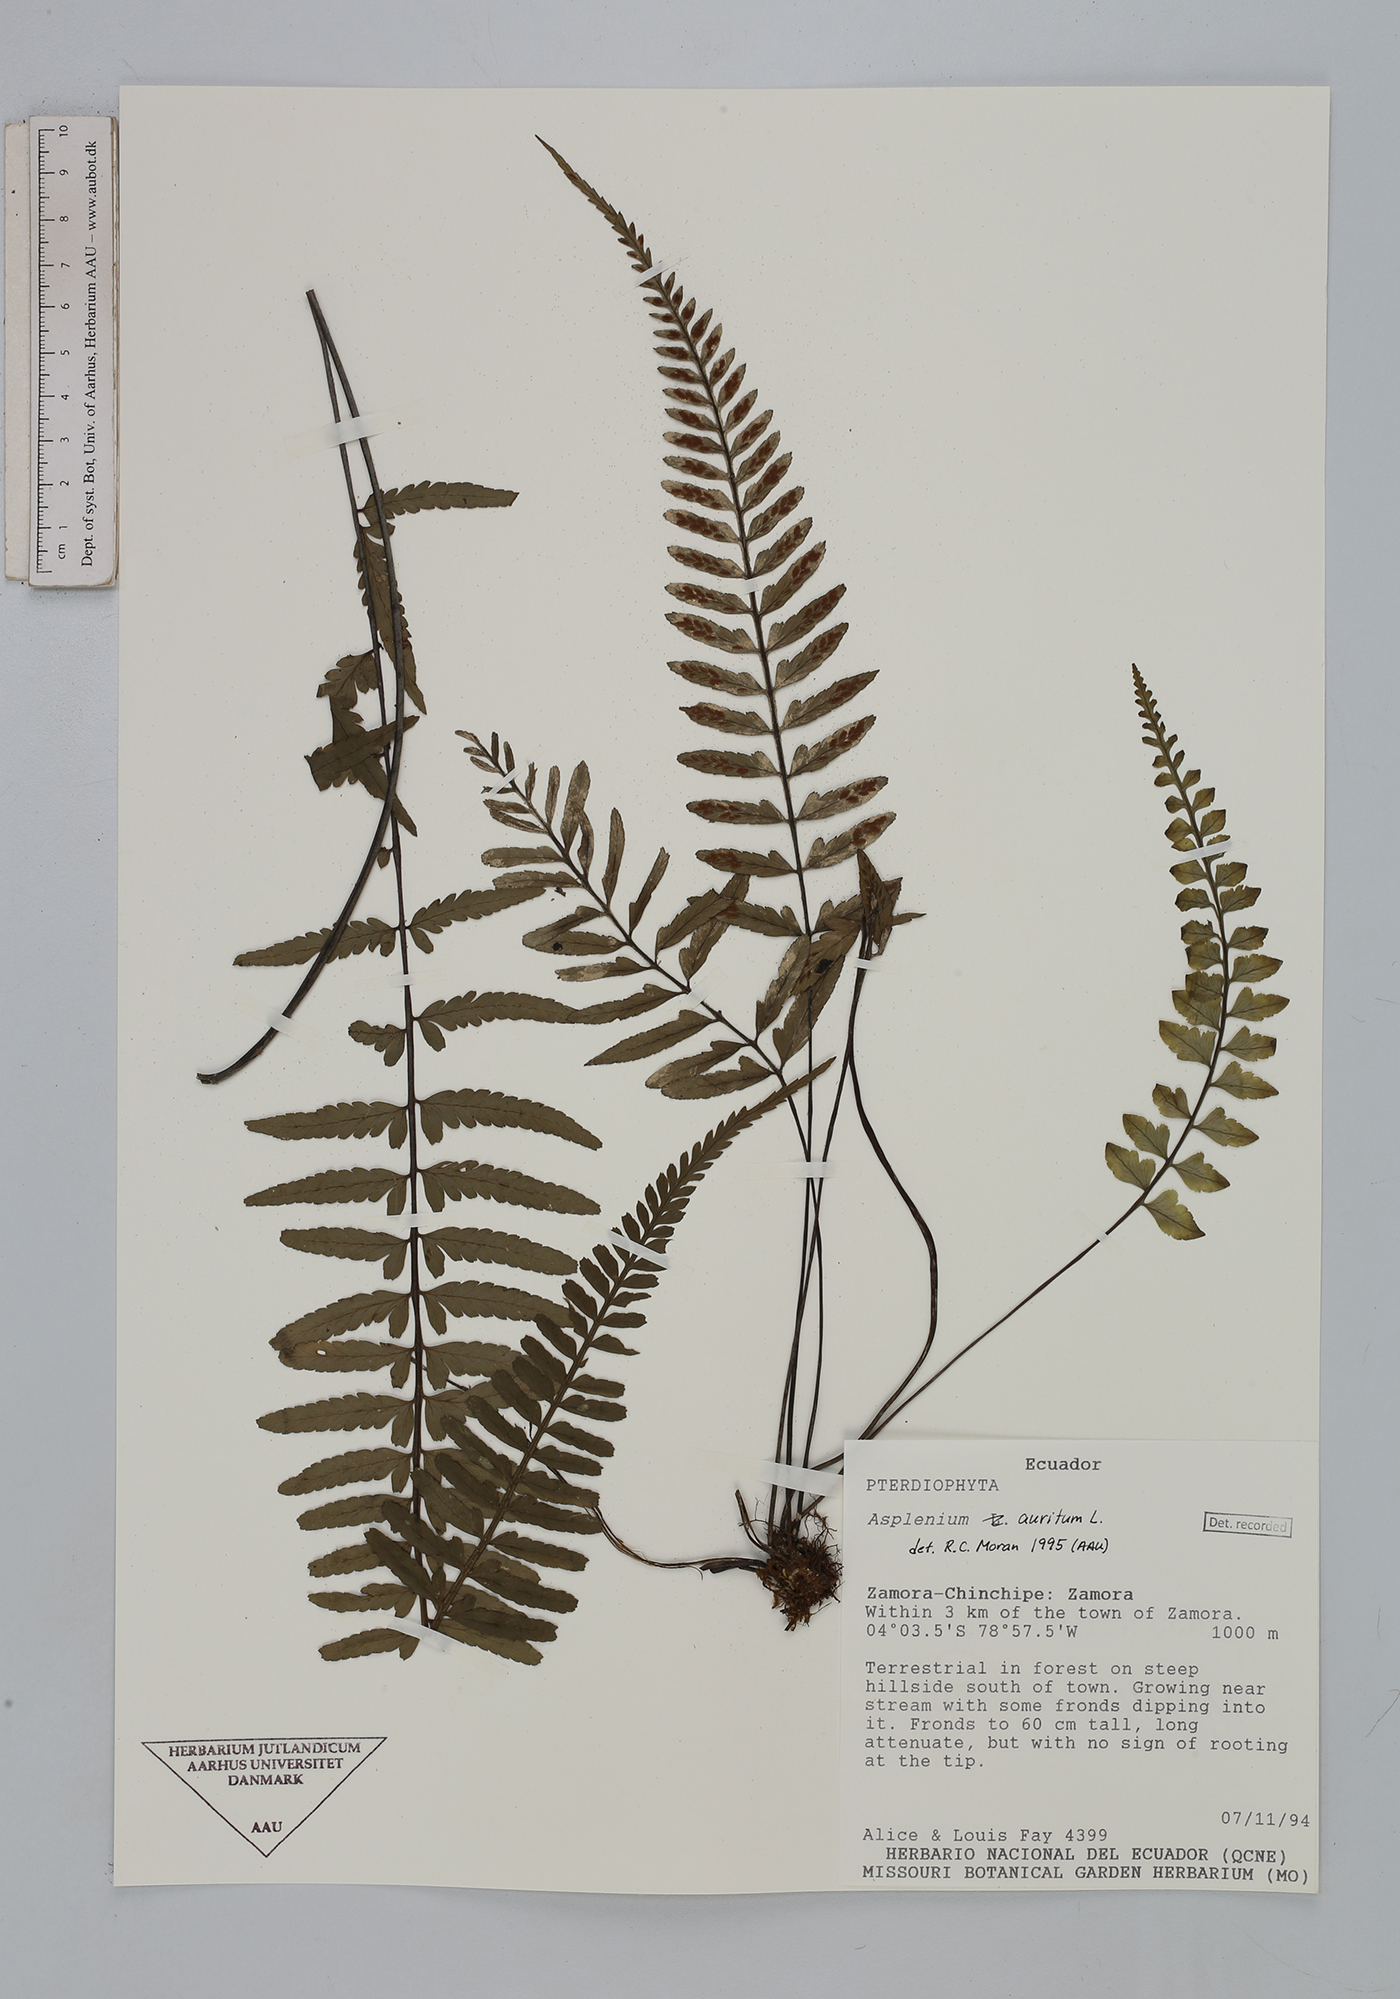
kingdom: Plantae
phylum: Tracheophyta
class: Polypodiopsida
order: Polypodiales
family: Aspleniaceae
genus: Asplenium
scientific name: Asplenium auritum
